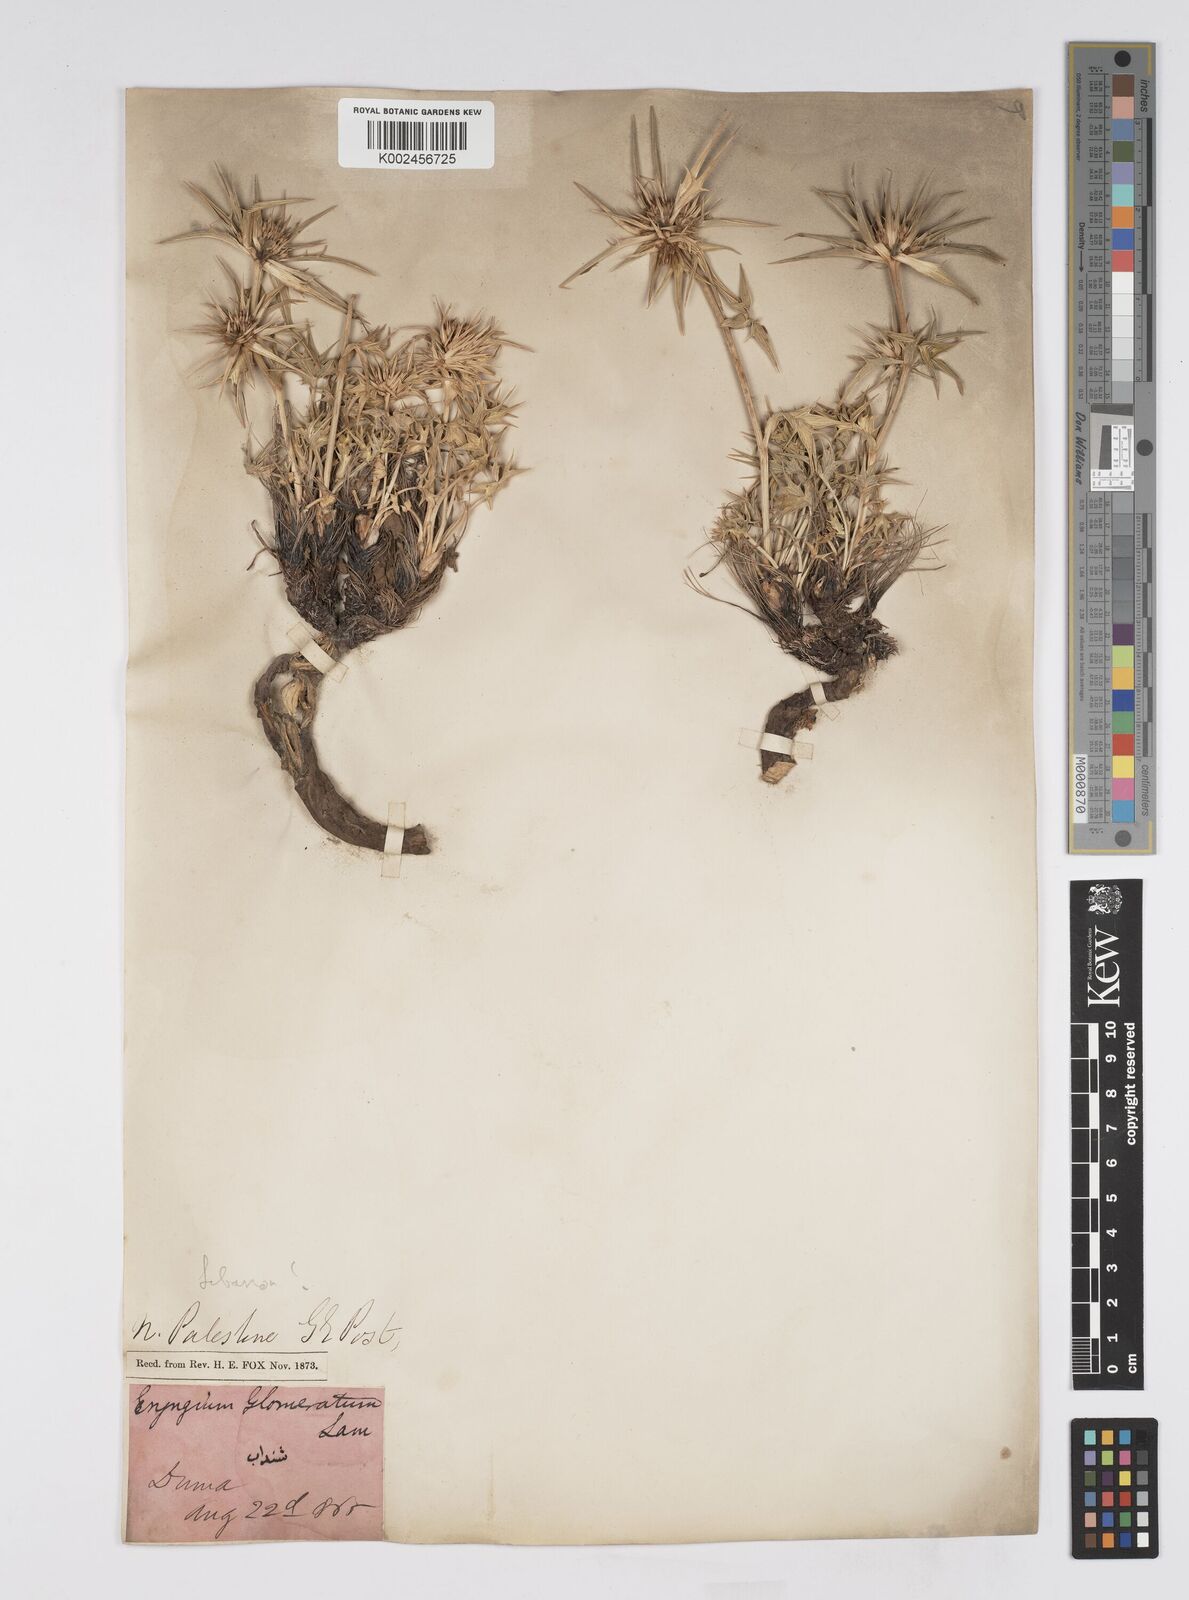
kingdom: Plantae
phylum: Tracheophyta
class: Magnoliopsida
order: Apiales
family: Apiaceae
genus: Eryngium
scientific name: Eryngium heldreichii
